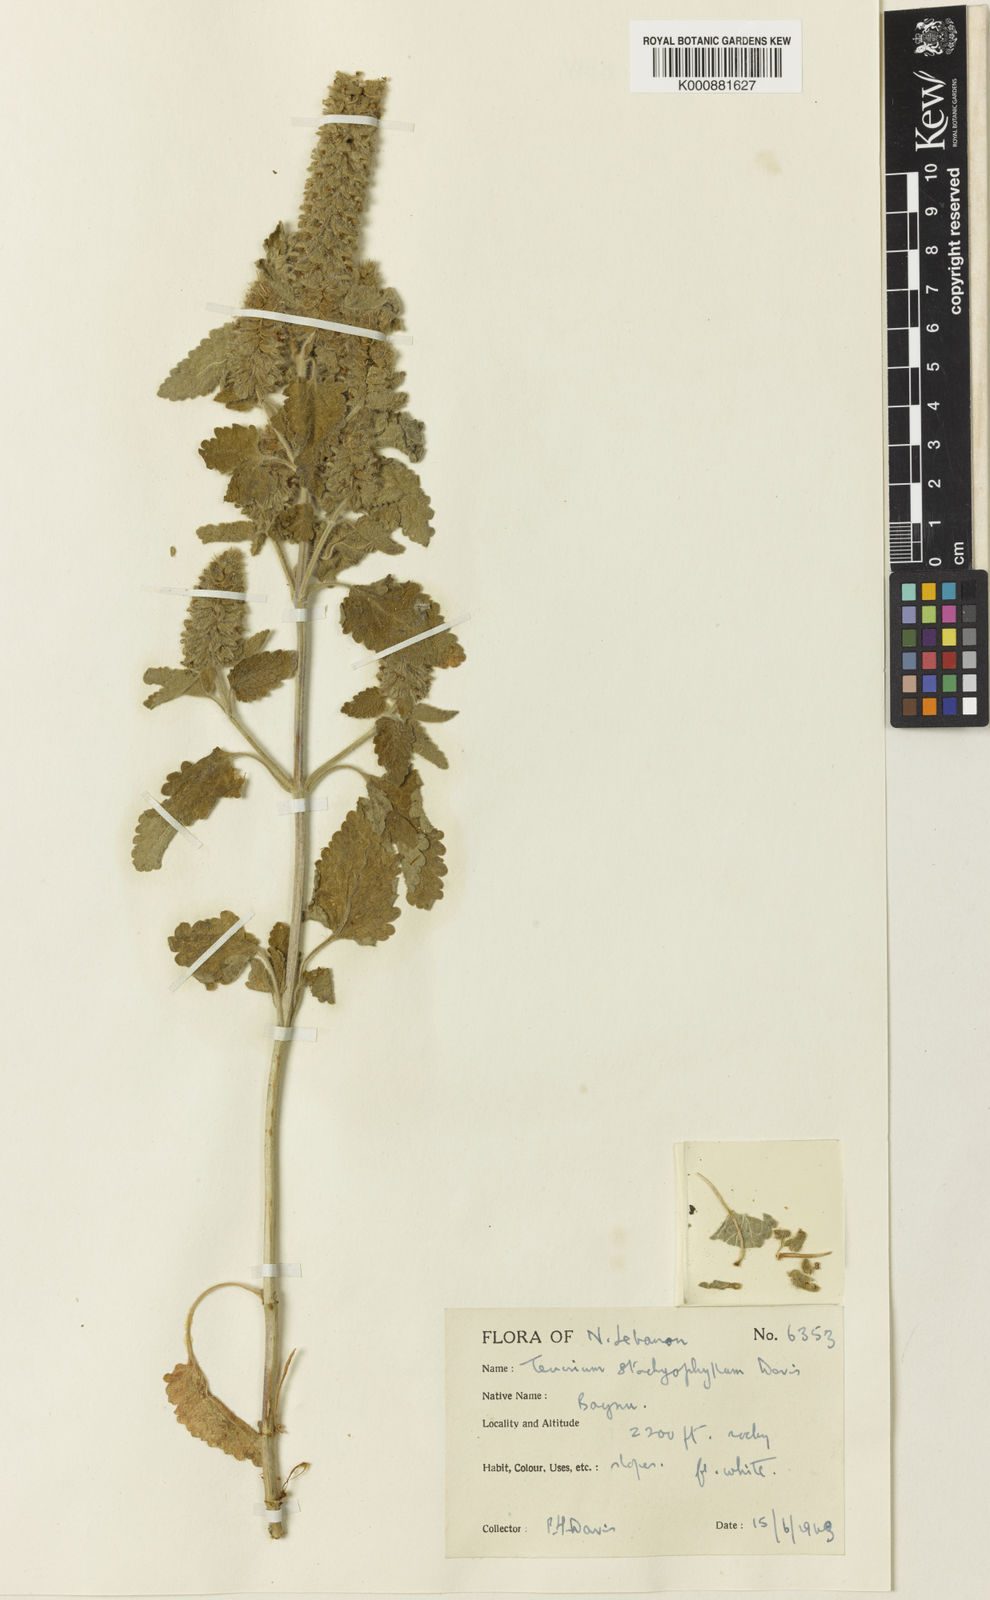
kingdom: Plantae
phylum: Tracheophyta
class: Magnoliopsida
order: Lamiales
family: Lamiaceae
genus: Teucrium
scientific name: Teucrium stachyophyllum
